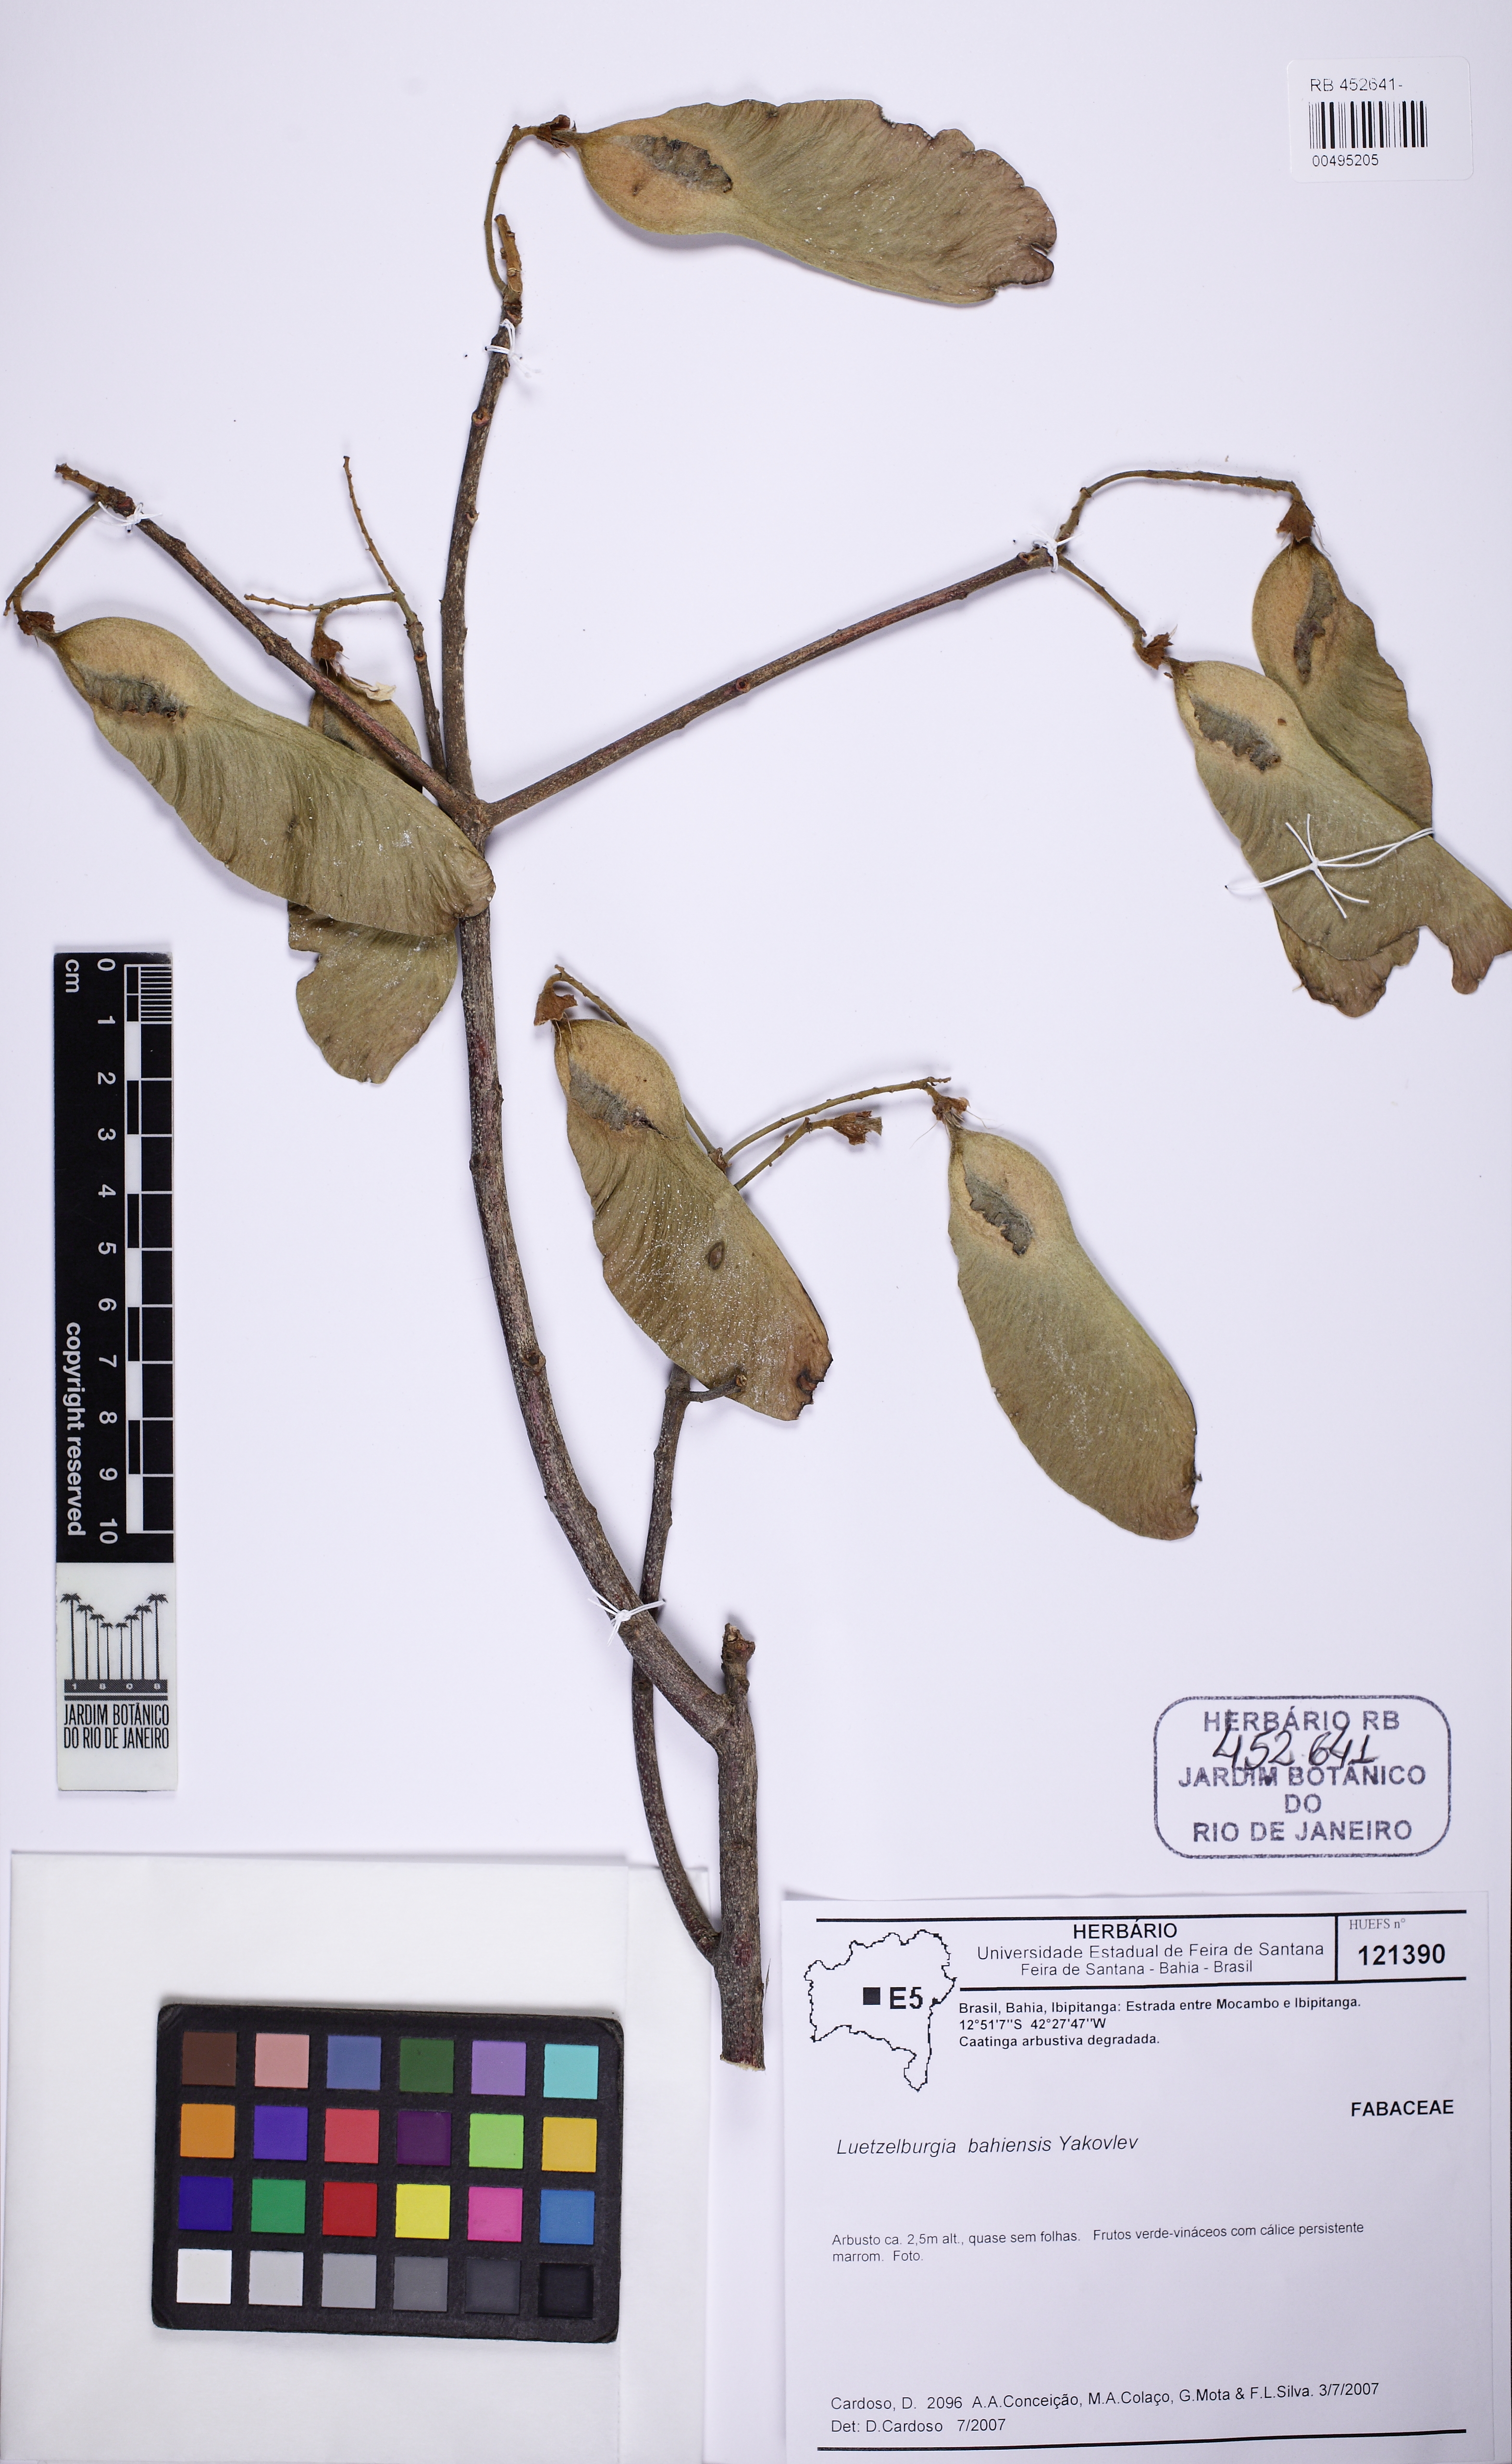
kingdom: Plantae
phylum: Tracheophyta
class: Magnoliopsida
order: Fabales
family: Fabaceae
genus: Luetzelburgia
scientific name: Luetzelburgia bahiensis
